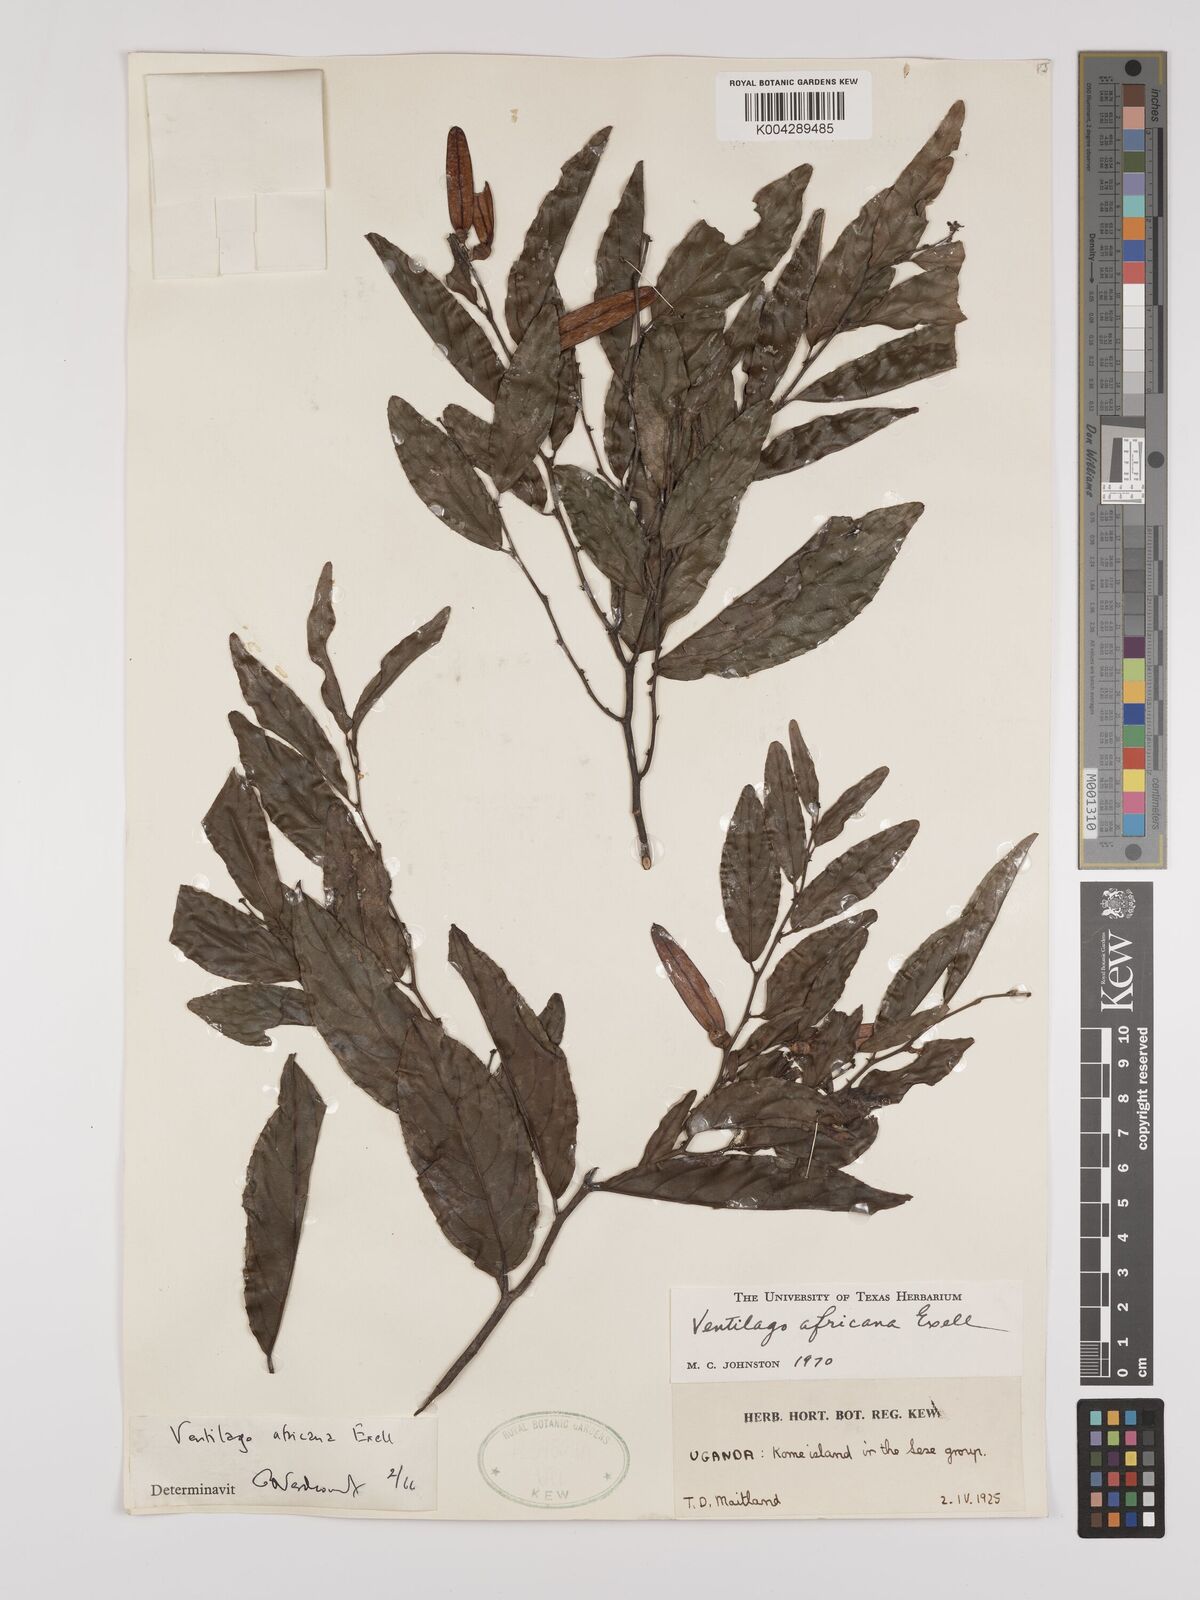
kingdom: Plantae
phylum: Tracheophyta
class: Magnoliopsida
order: Rosales
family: Rhamnaceae
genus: Ventilago
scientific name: Ventilago africana
